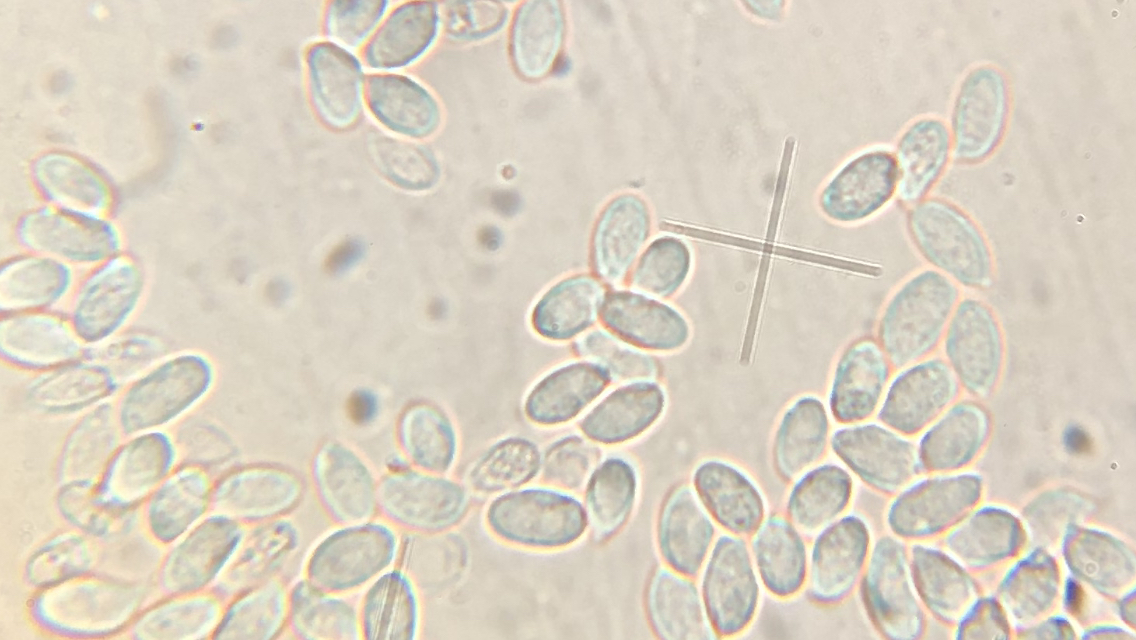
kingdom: Fungi
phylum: Basidiomycota
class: Agaricomycetes
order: Agaricales
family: Physalacriaceae
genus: Flammulina
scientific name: Flammulina populicola
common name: poppel-fløjlsfod
